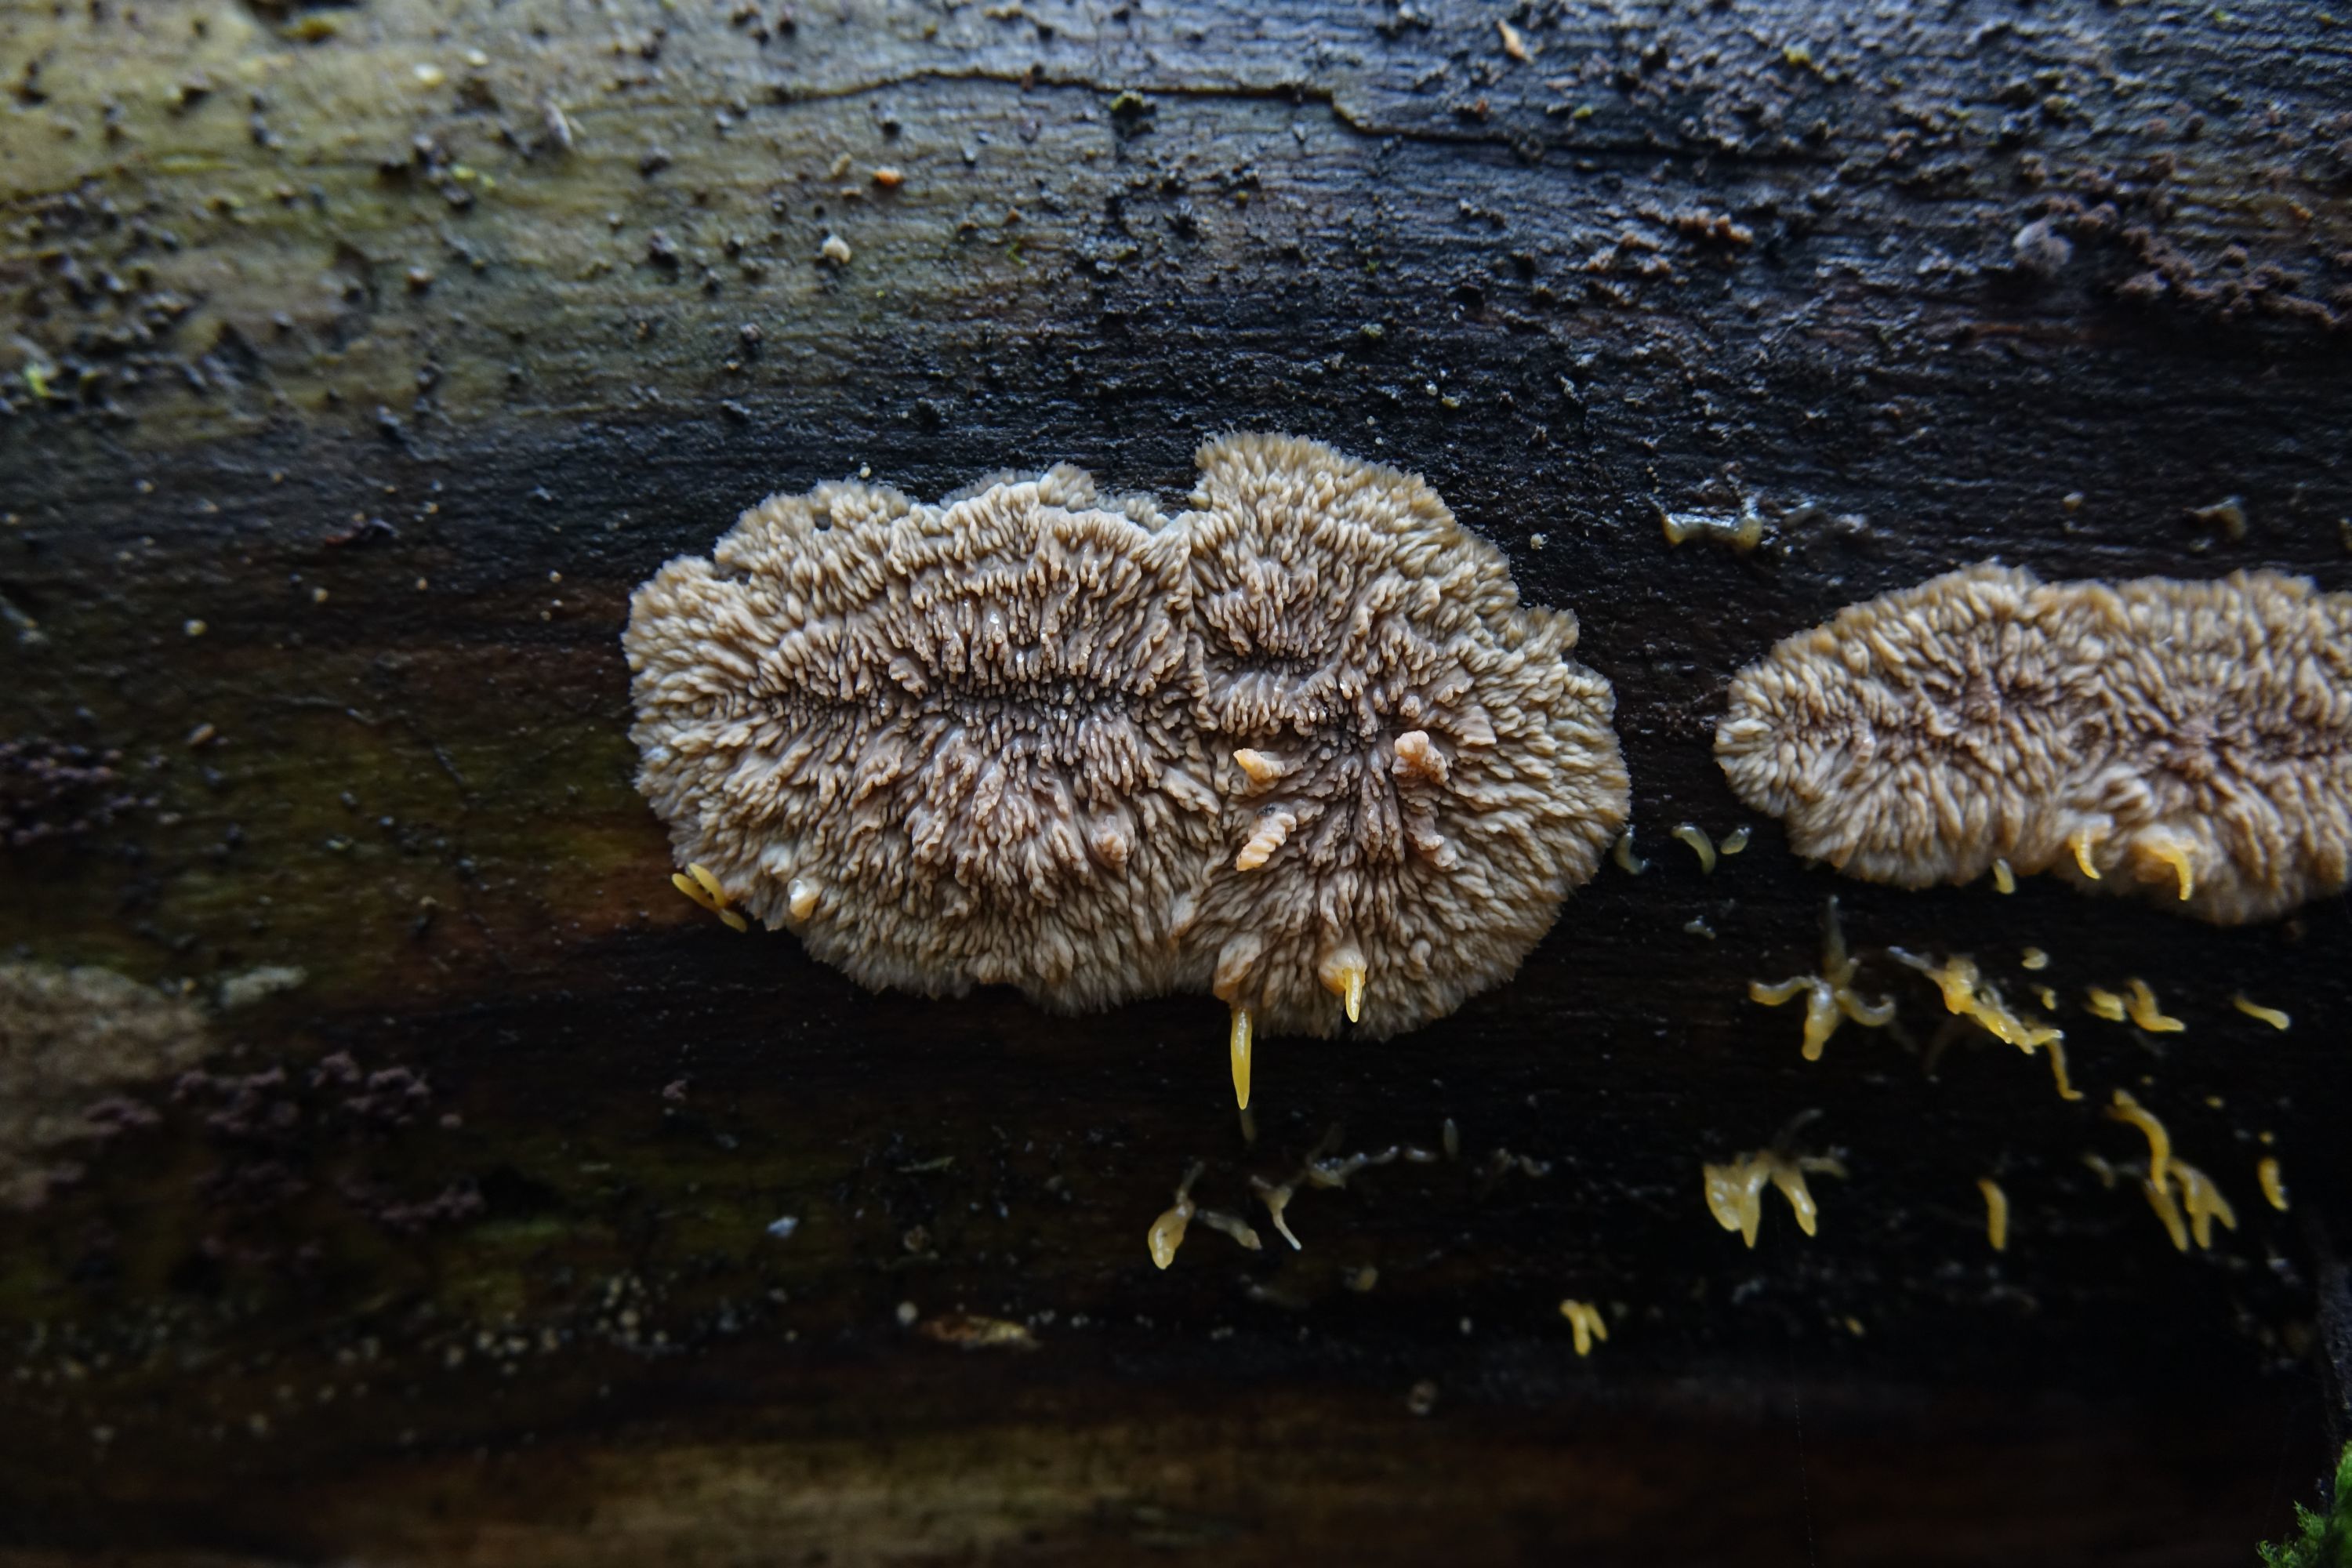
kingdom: Fungi
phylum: Basidiomycota
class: Agaricomycetes
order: Polyporales
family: Meruliaceae
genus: Phlebia
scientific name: Phlebia radiata
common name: Wrinkled crust
